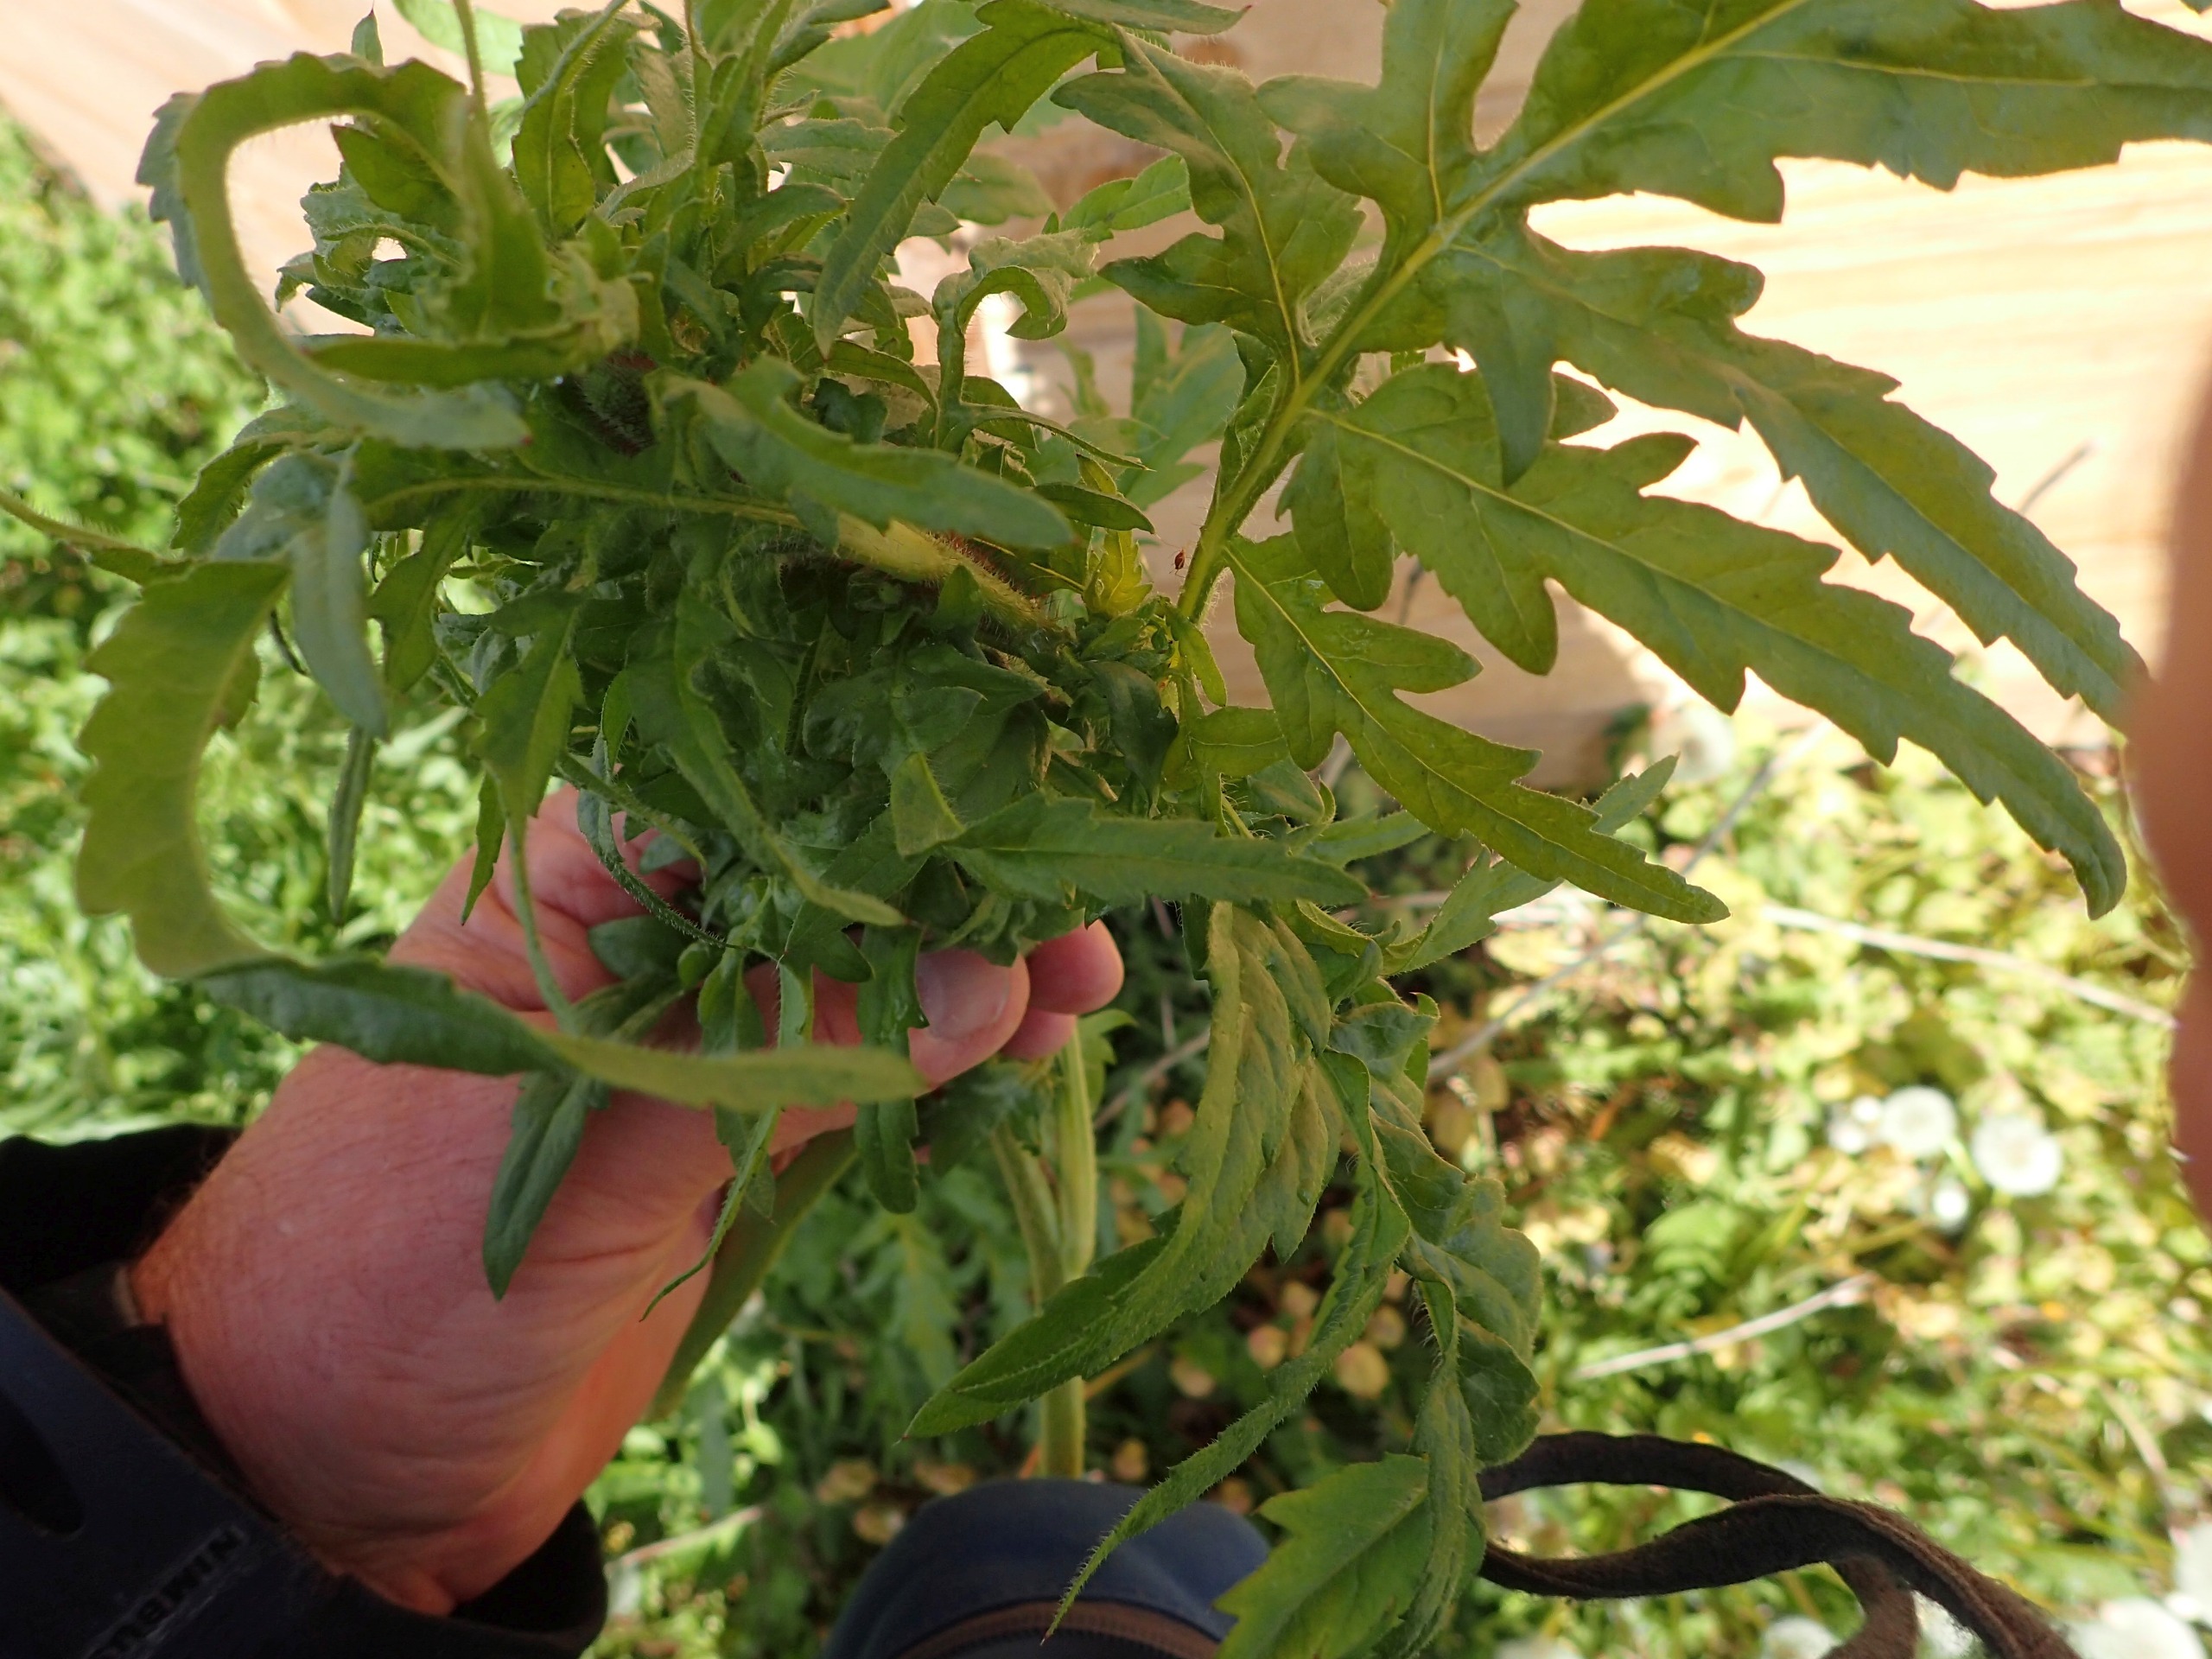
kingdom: Plantae
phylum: Tracheophyta
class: Magnoliopsida
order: Ranunculales
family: Papaveraceae
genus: Papaver
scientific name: Papaver
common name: Valmueslægten
